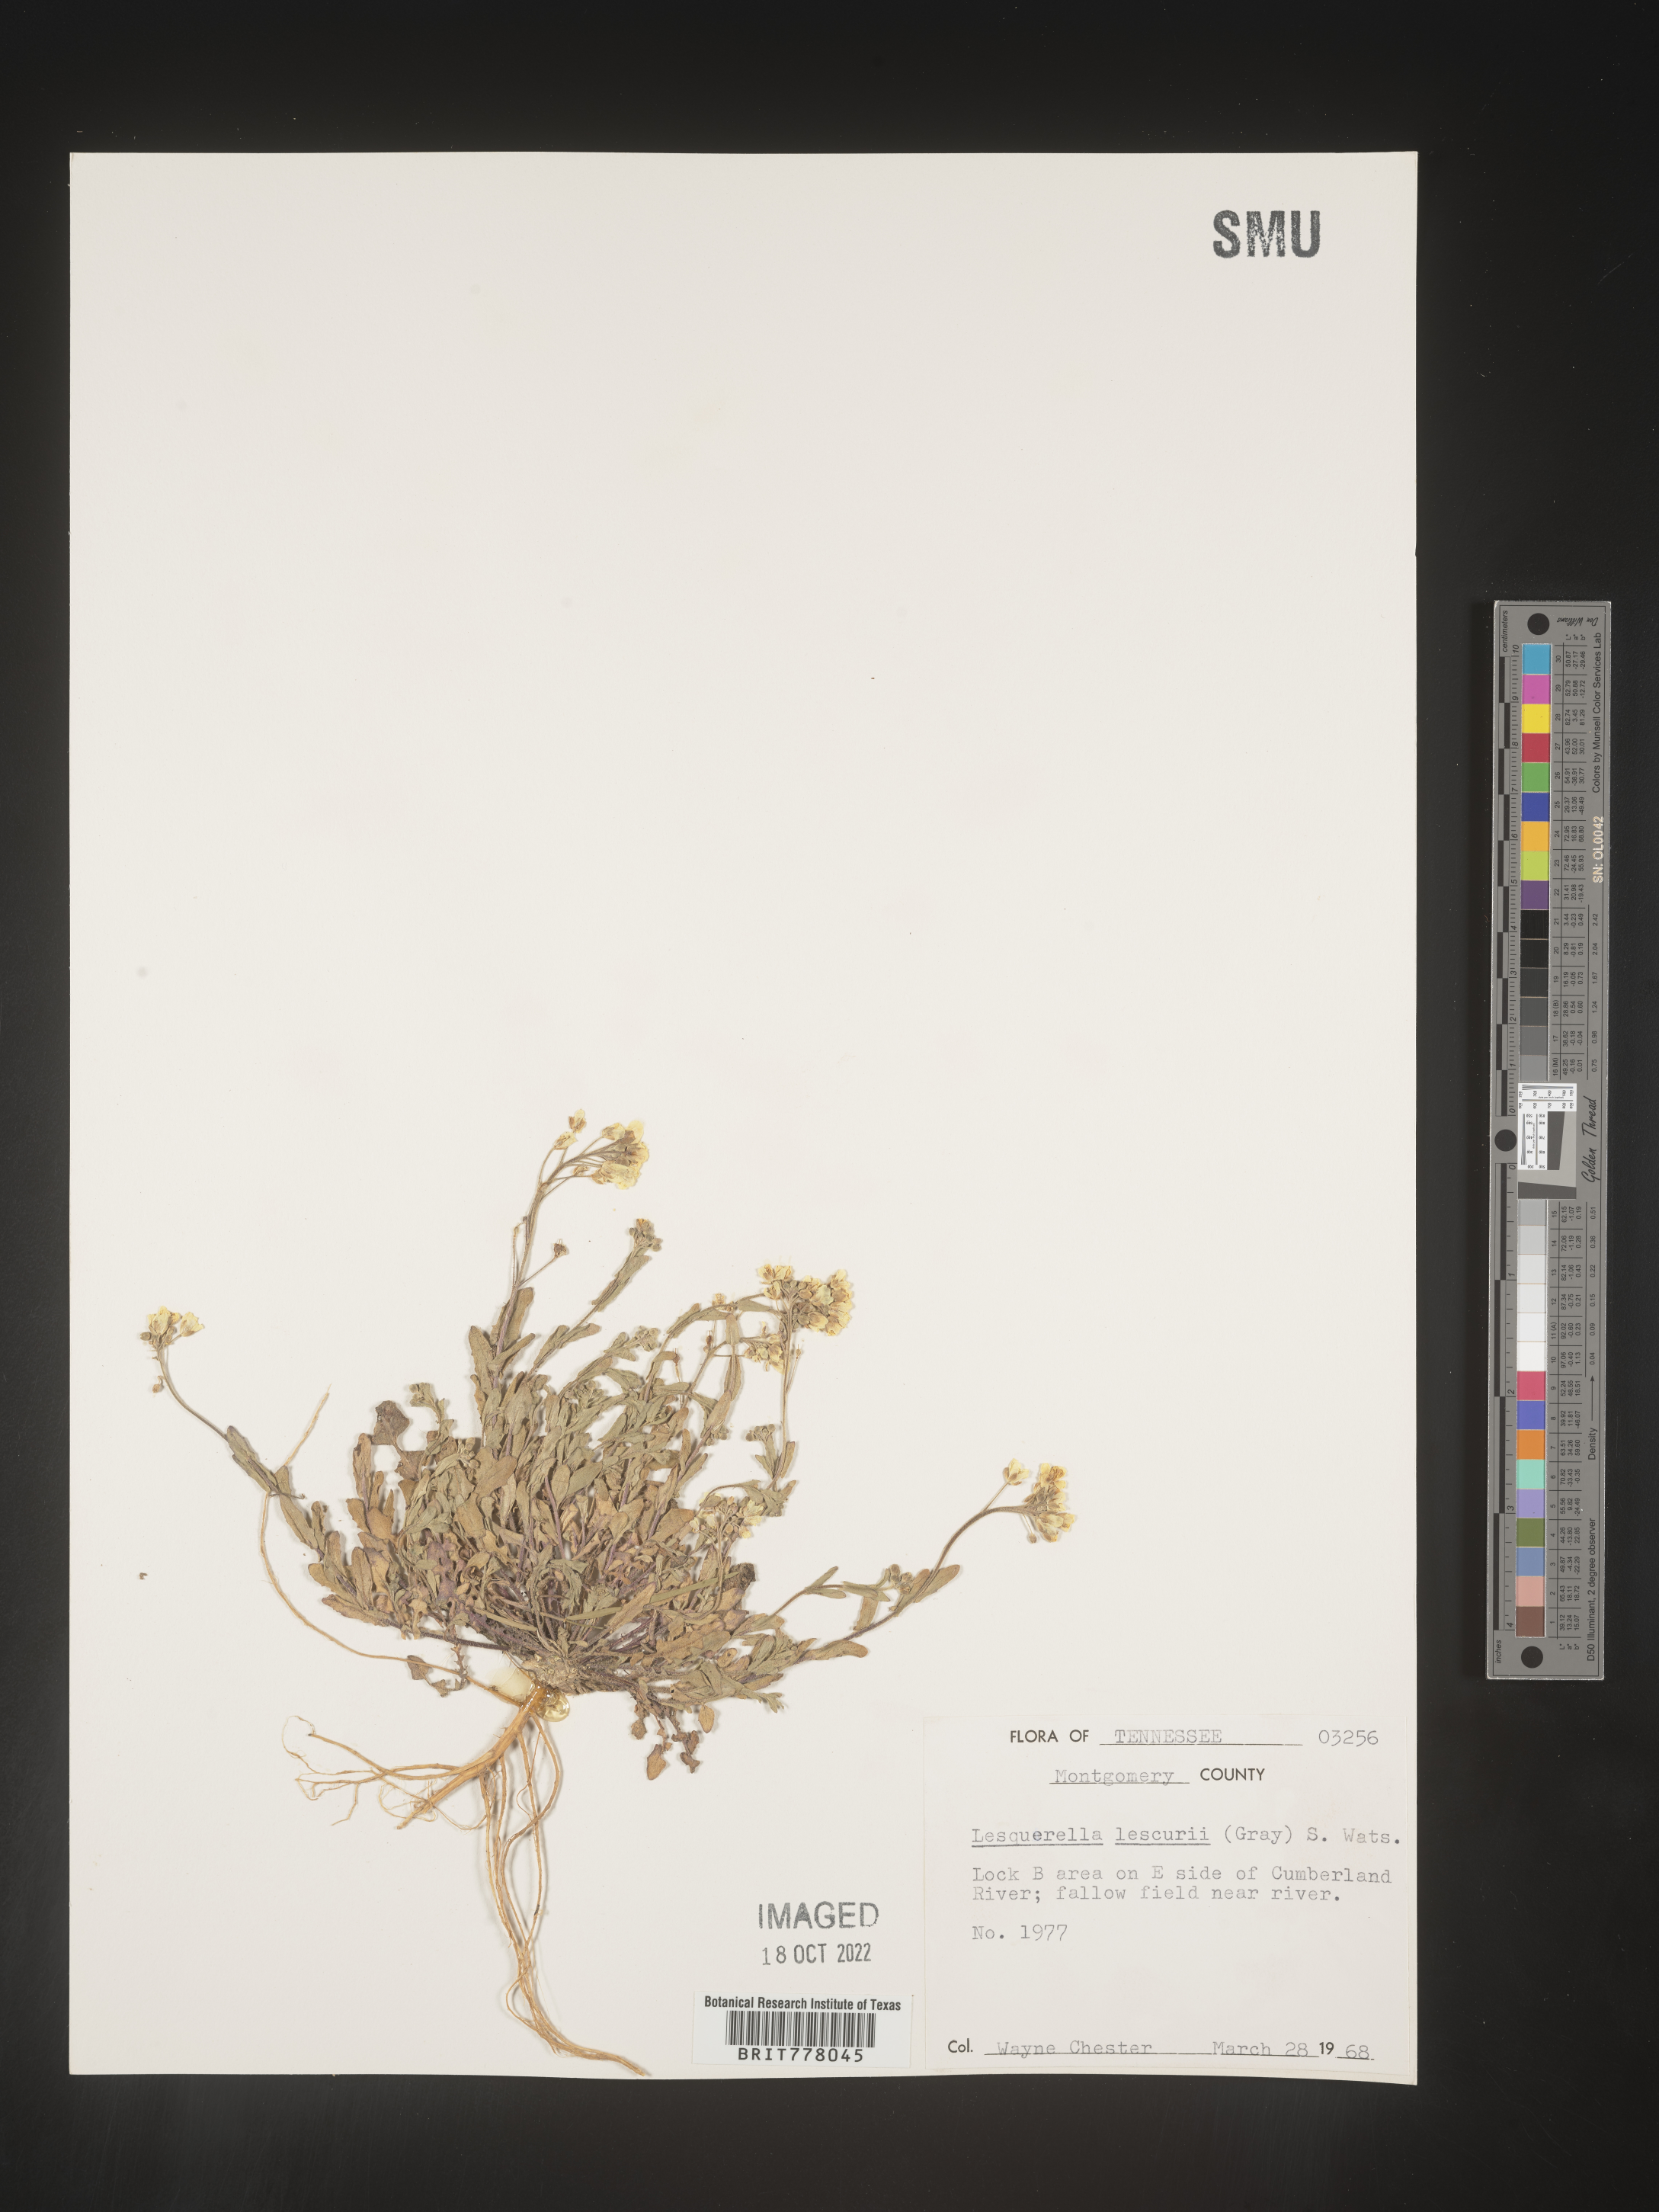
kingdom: Chromista
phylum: Cercozoa
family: Psammonobiotidae
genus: Lesquerella
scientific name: Lesquerella
